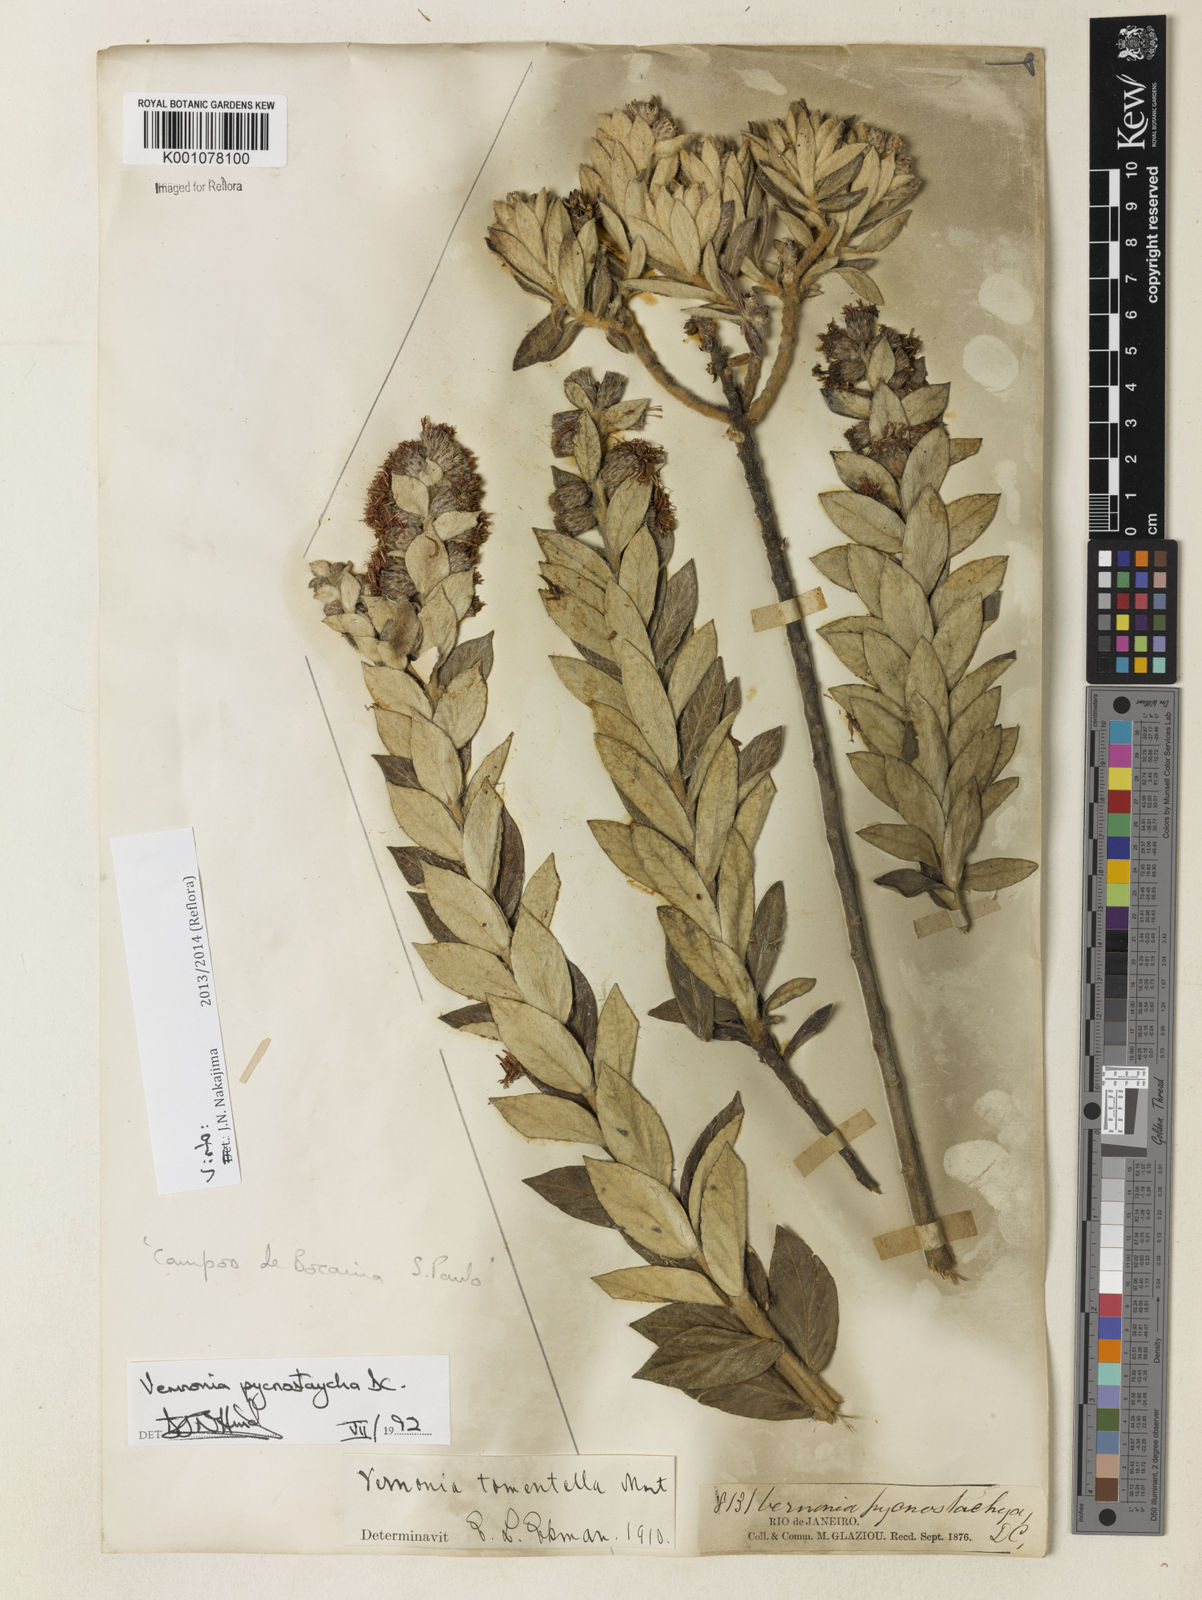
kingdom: Plantae
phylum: Tracheophyta
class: Magnoliopsida
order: Asterales
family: Asteraceae
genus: Lessingianthus
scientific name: Lessingianthus pycnostachyus
